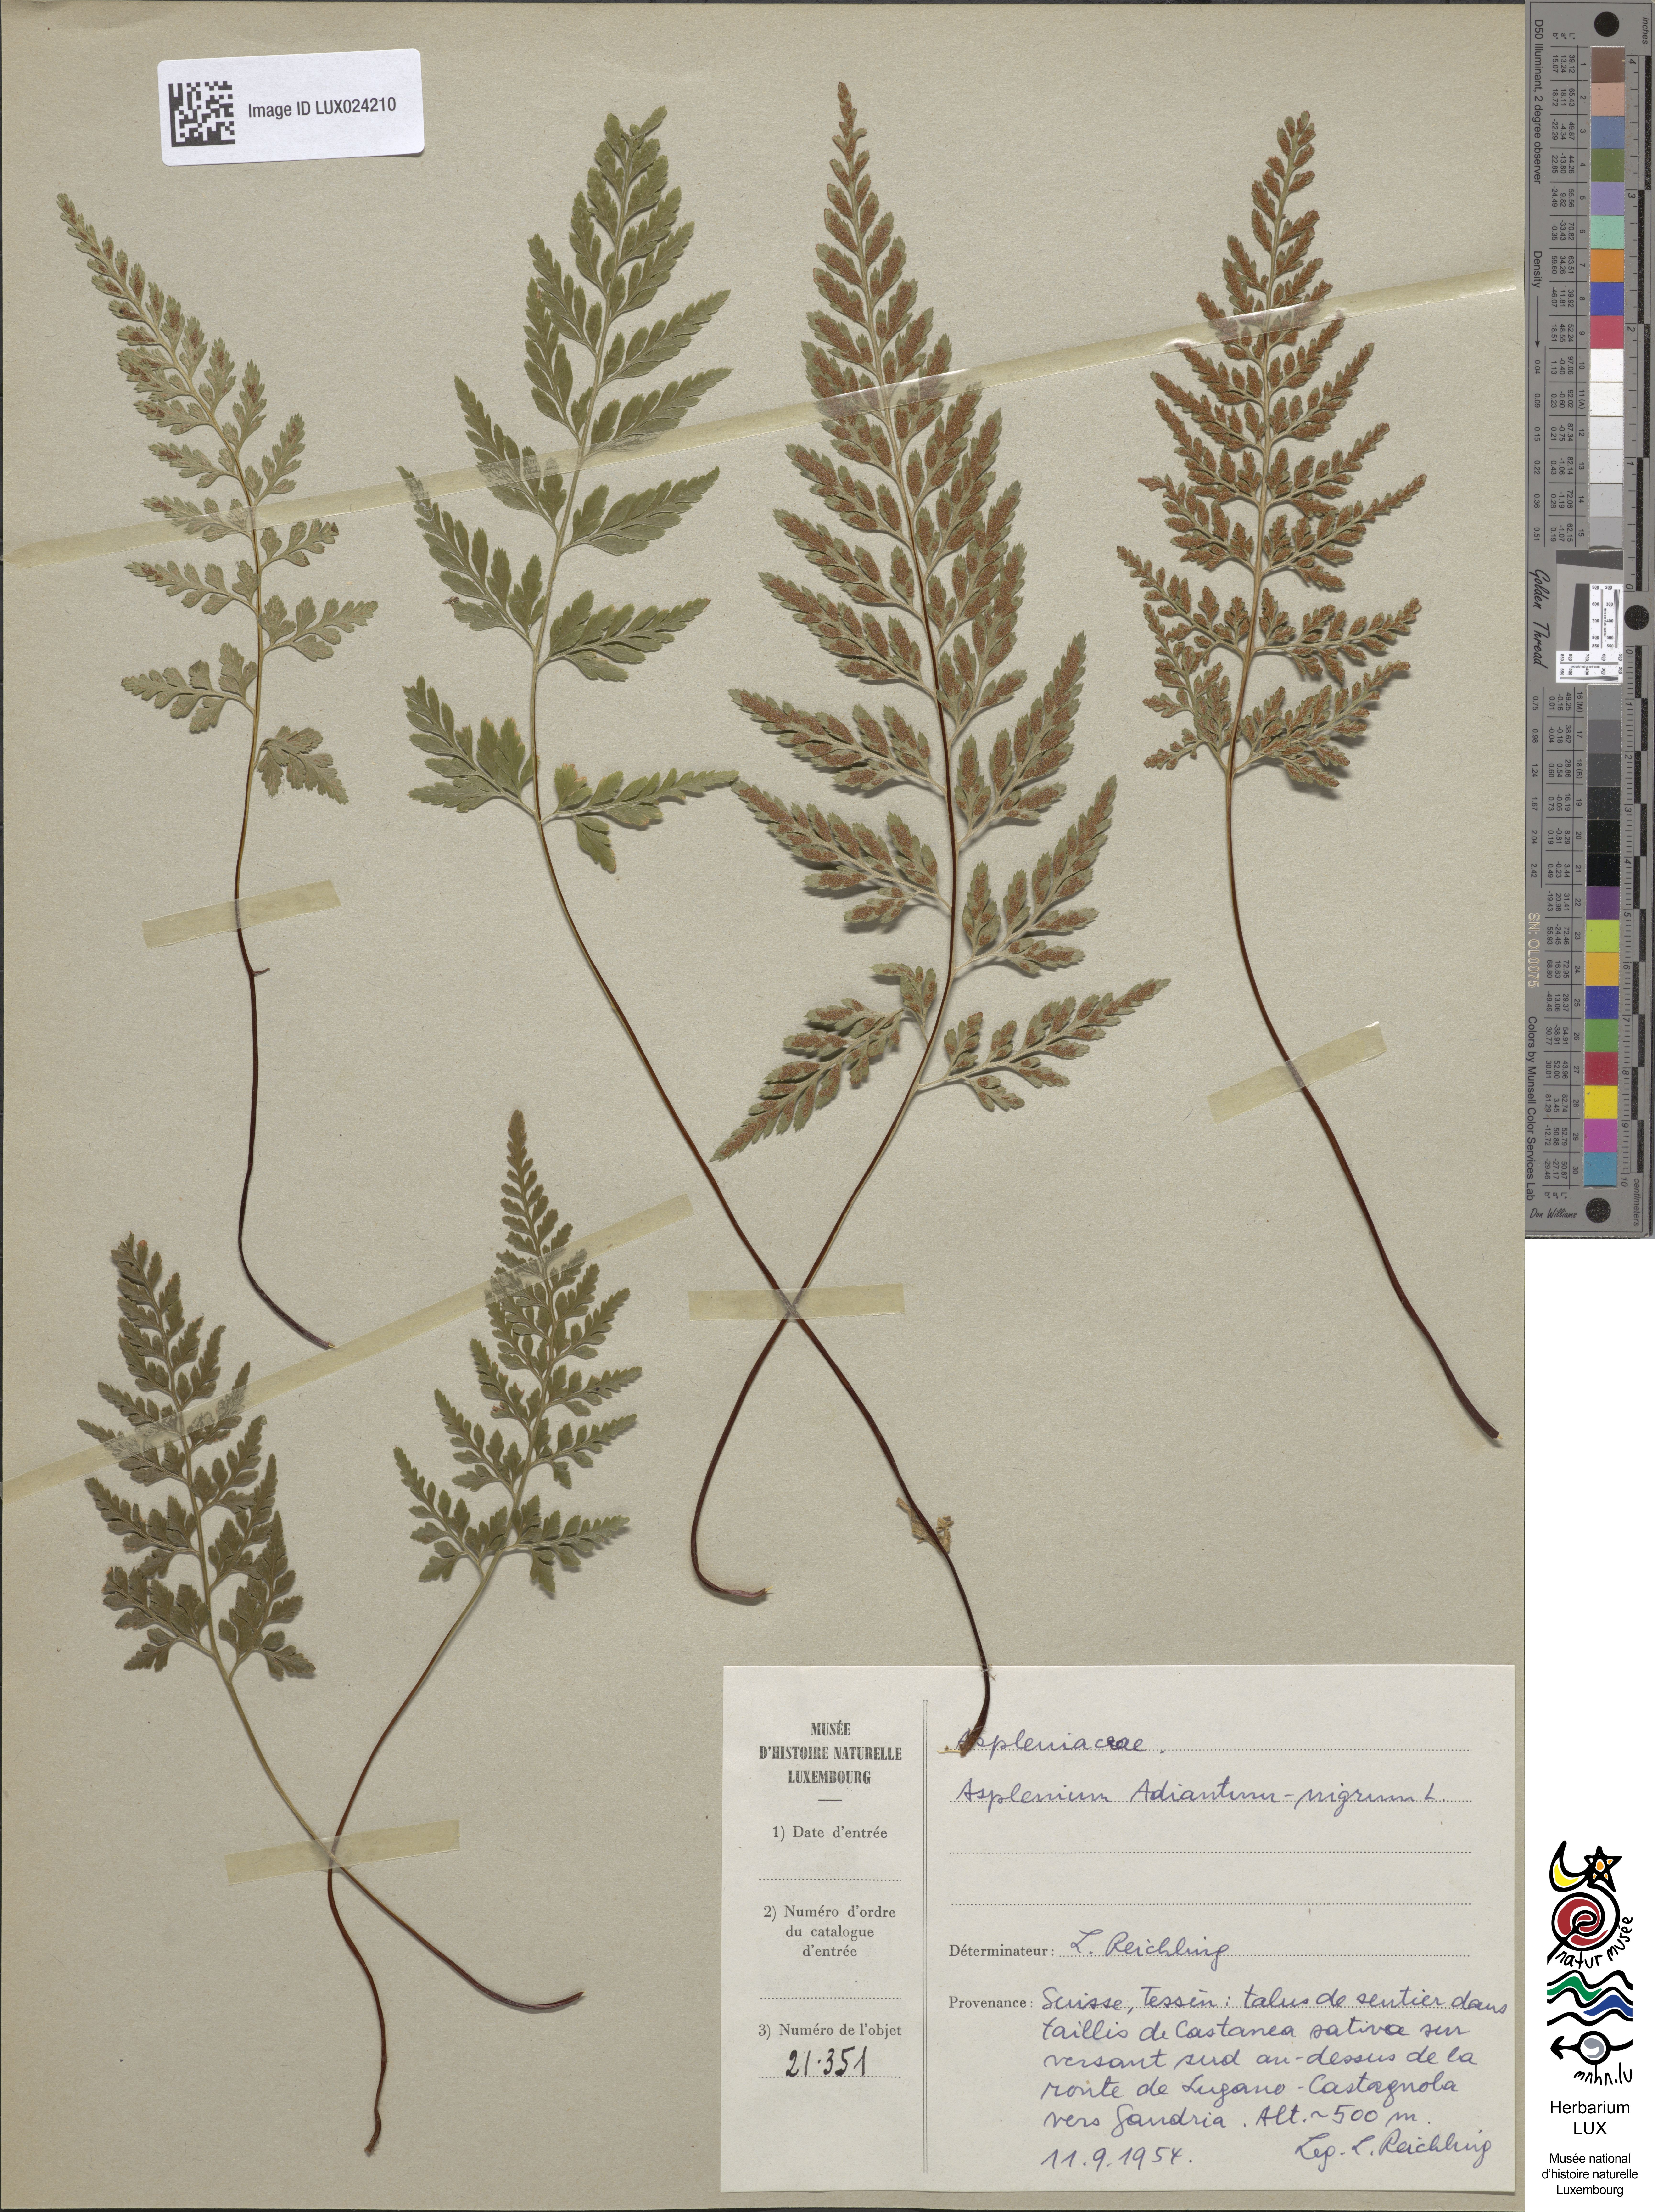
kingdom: Plantae
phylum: Tracheophyta
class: Polypodiopsida
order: Polypodiales
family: Aspleniaceae
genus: Asplenium
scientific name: Asplenium adiantum-nigrum
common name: Black spleenwort
